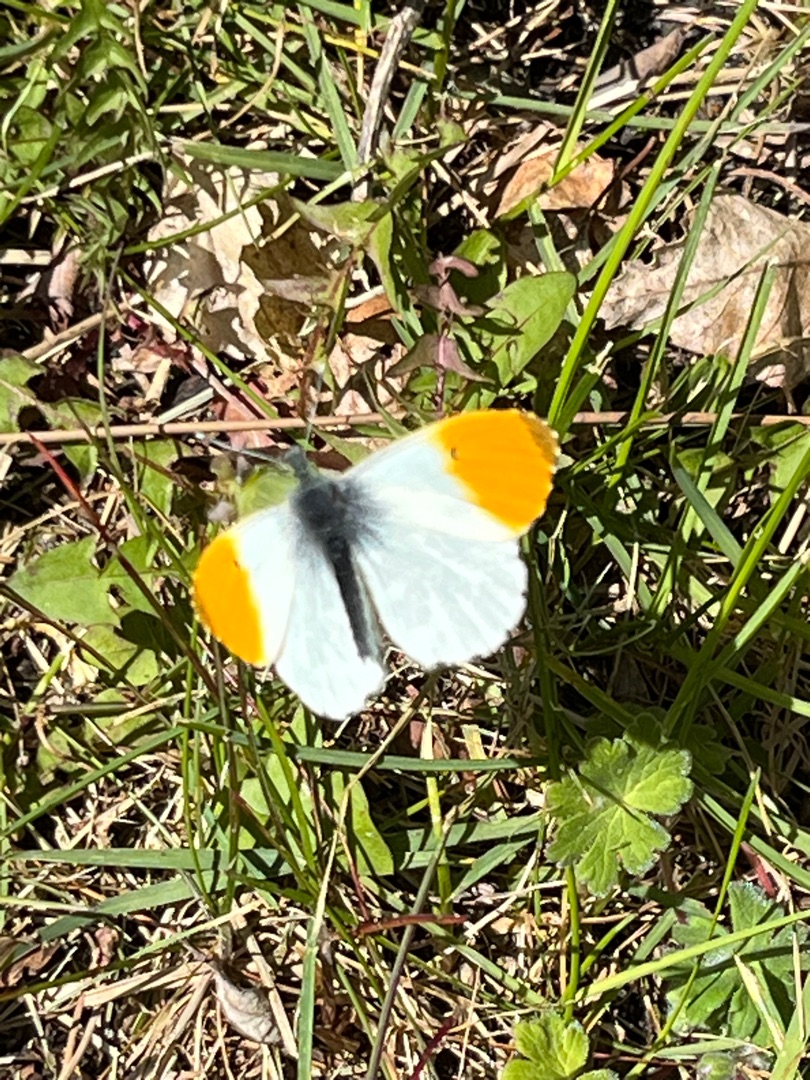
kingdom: Animalia
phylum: Arthropoda
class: Insecta
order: Lepidoptera
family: Pieridae
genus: Anthocharis
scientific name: Anthocharis cardamines
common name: Aurora
